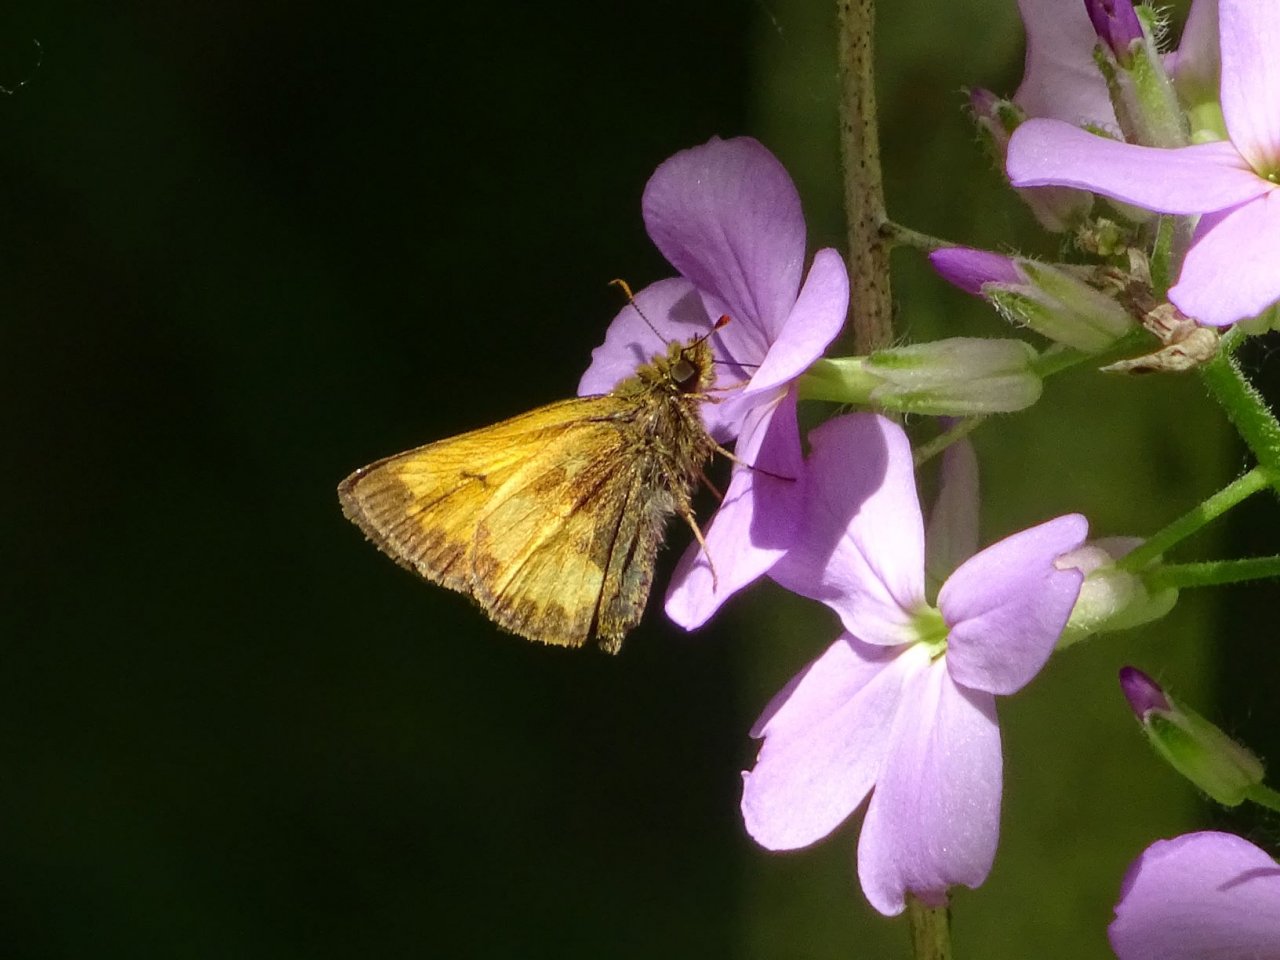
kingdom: Animalia
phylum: Arthropoda
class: Insecta
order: Lepidoptera
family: Hesperiidae
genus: Lon
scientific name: Lon hobomok
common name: Hobomok Skipper
